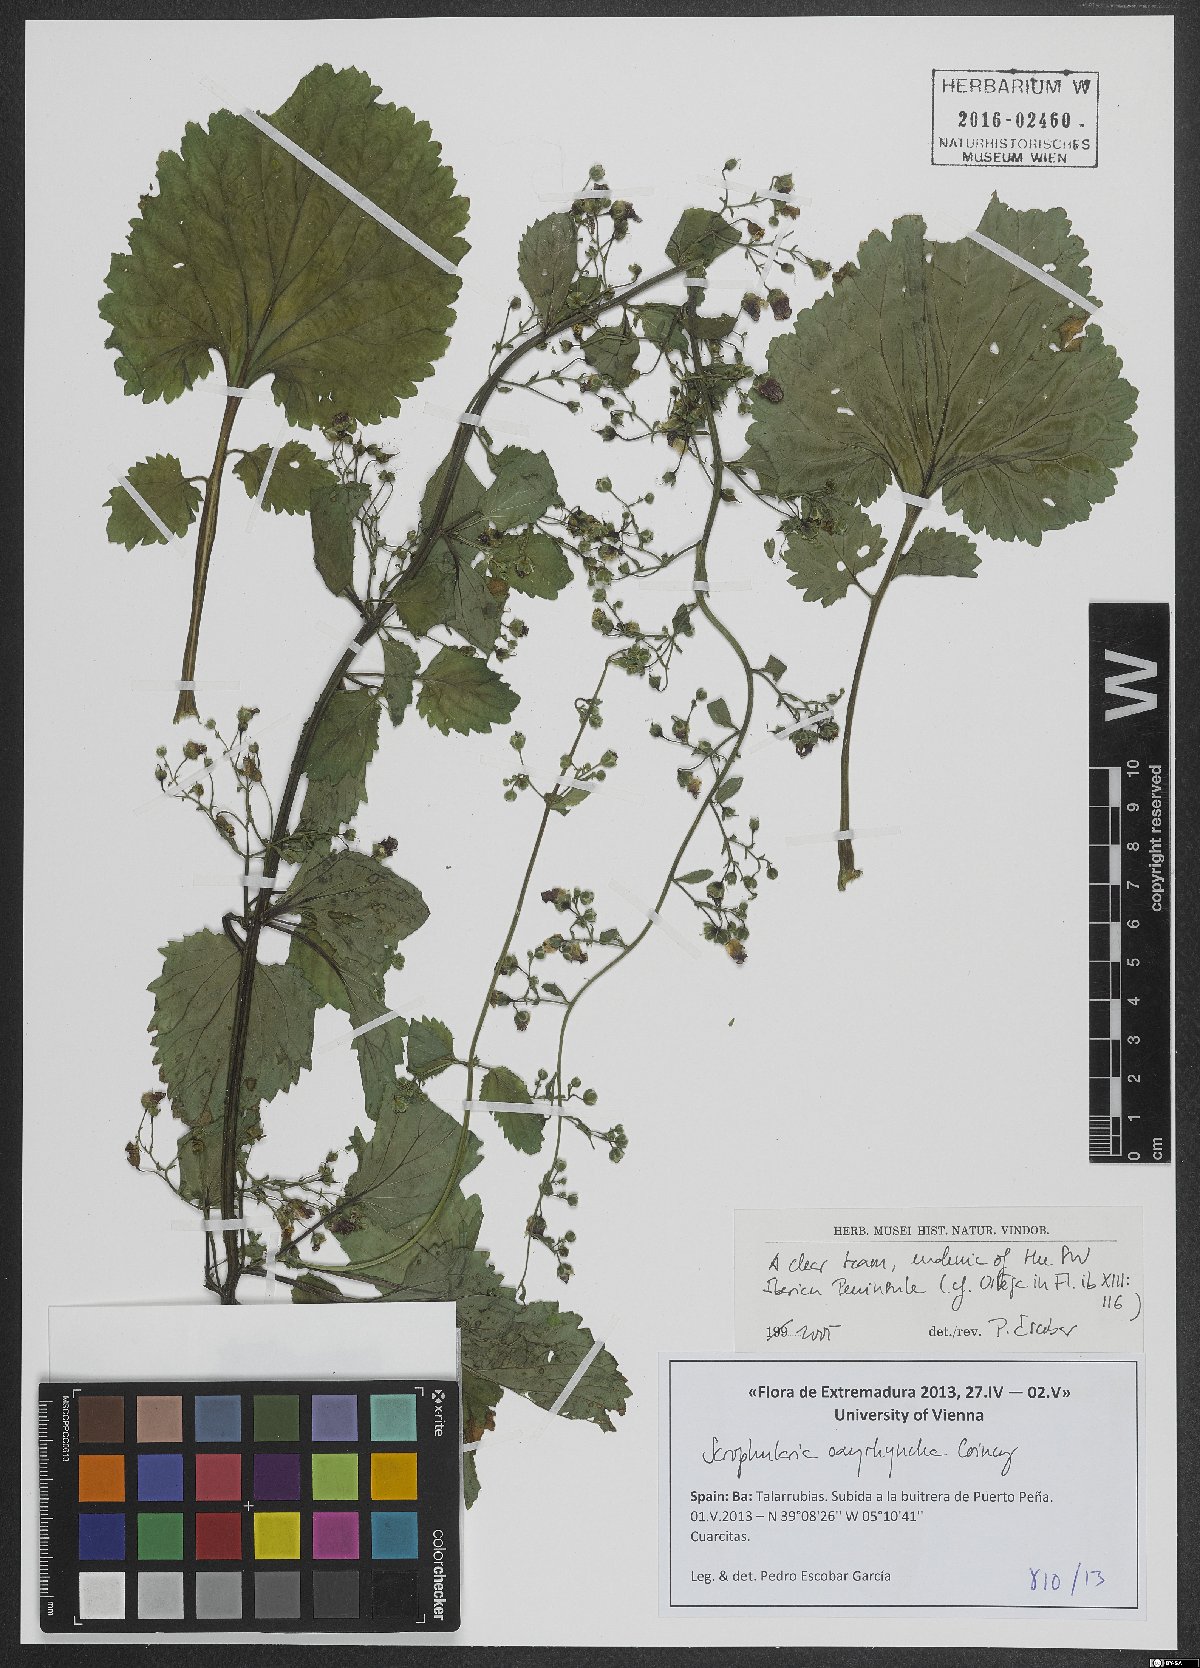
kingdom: Plantae
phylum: Tracheophyta
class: Magnoliopsida
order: Lamiales
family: Scrophulariaceae
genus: Scrophularia
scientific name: Scrophularia oxyrhyncha
